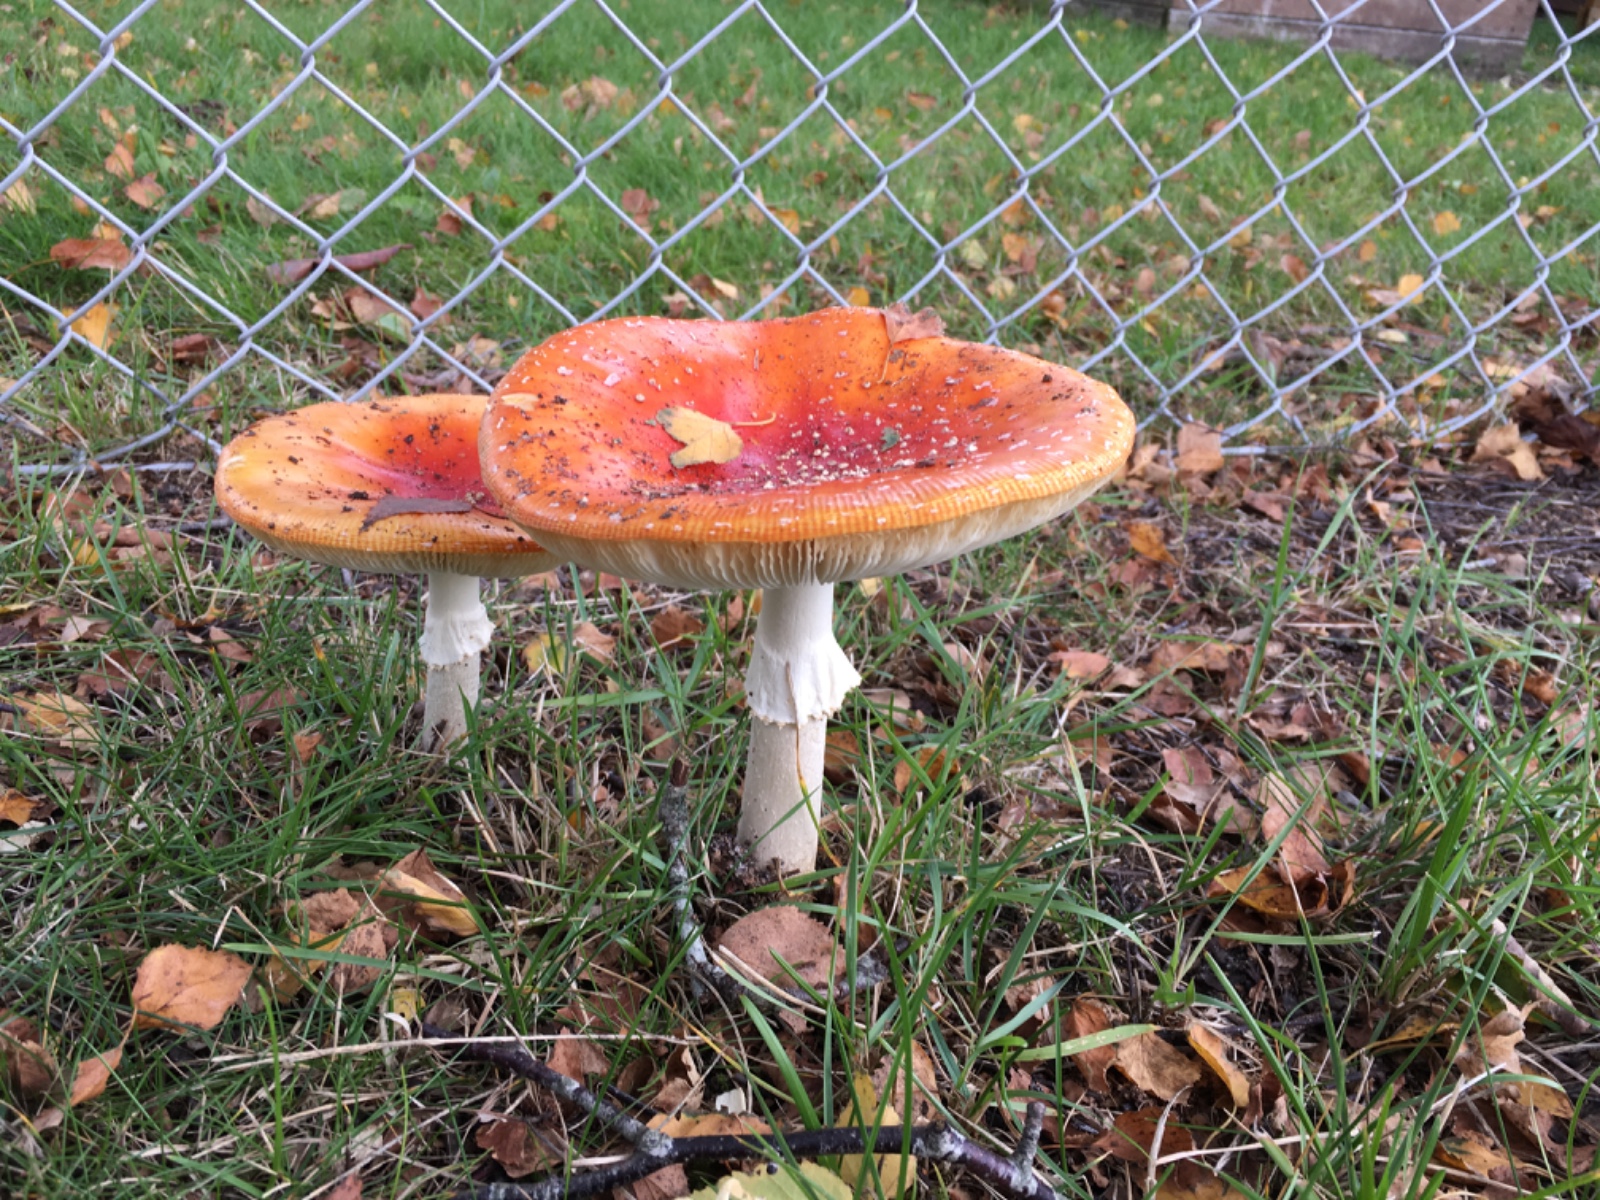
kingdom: Fungi
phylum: Basidiomycota
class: Agaricomycetes
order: Agaricales
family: Amanitaceae
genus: Amanita
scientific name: Amanita muscaria
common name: rød fluesvamp
